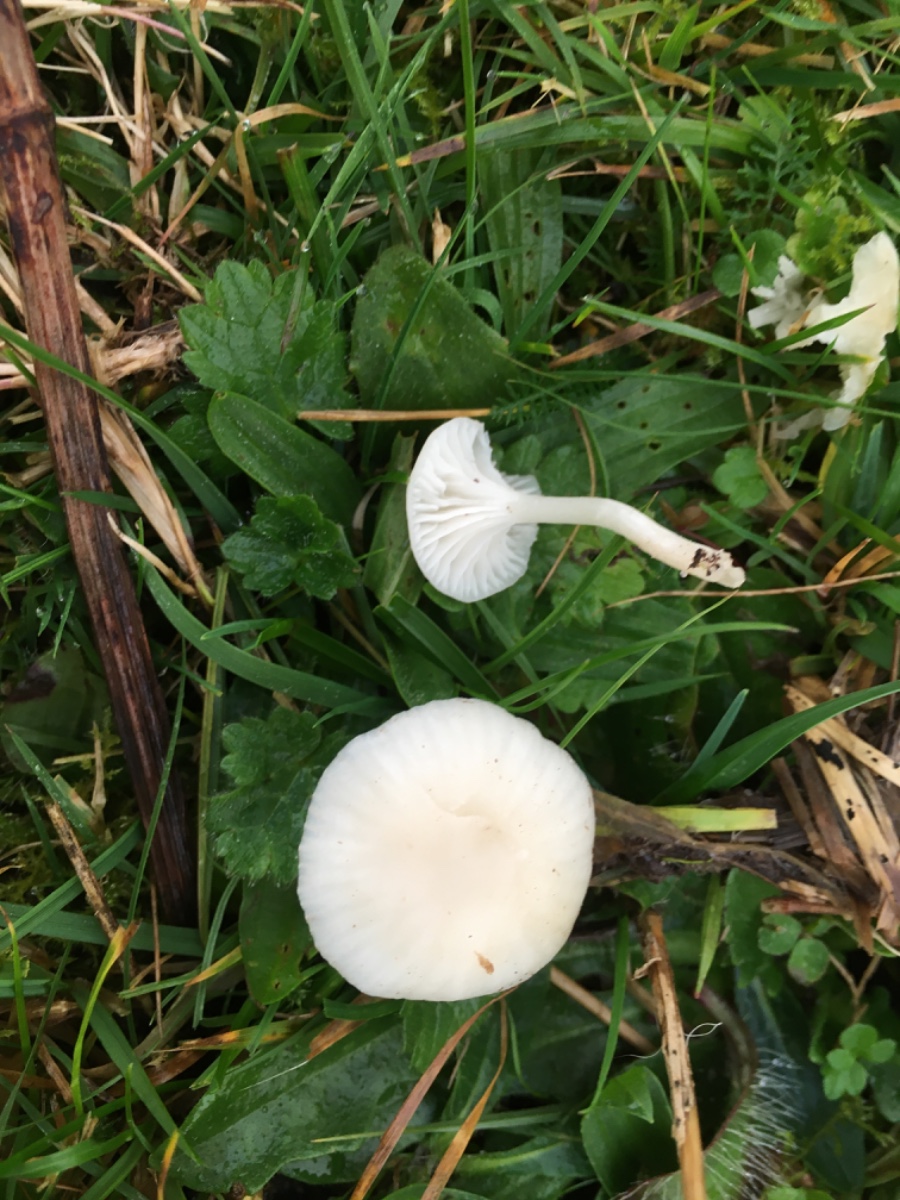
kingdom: Fungi
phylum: Basidiomycota
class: Agaricomycetes
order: Agaricales
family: Hygrophoraceae
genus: Cuphophyllus
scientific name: Cuphophyllus virgineus
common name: snehvid vokshat
